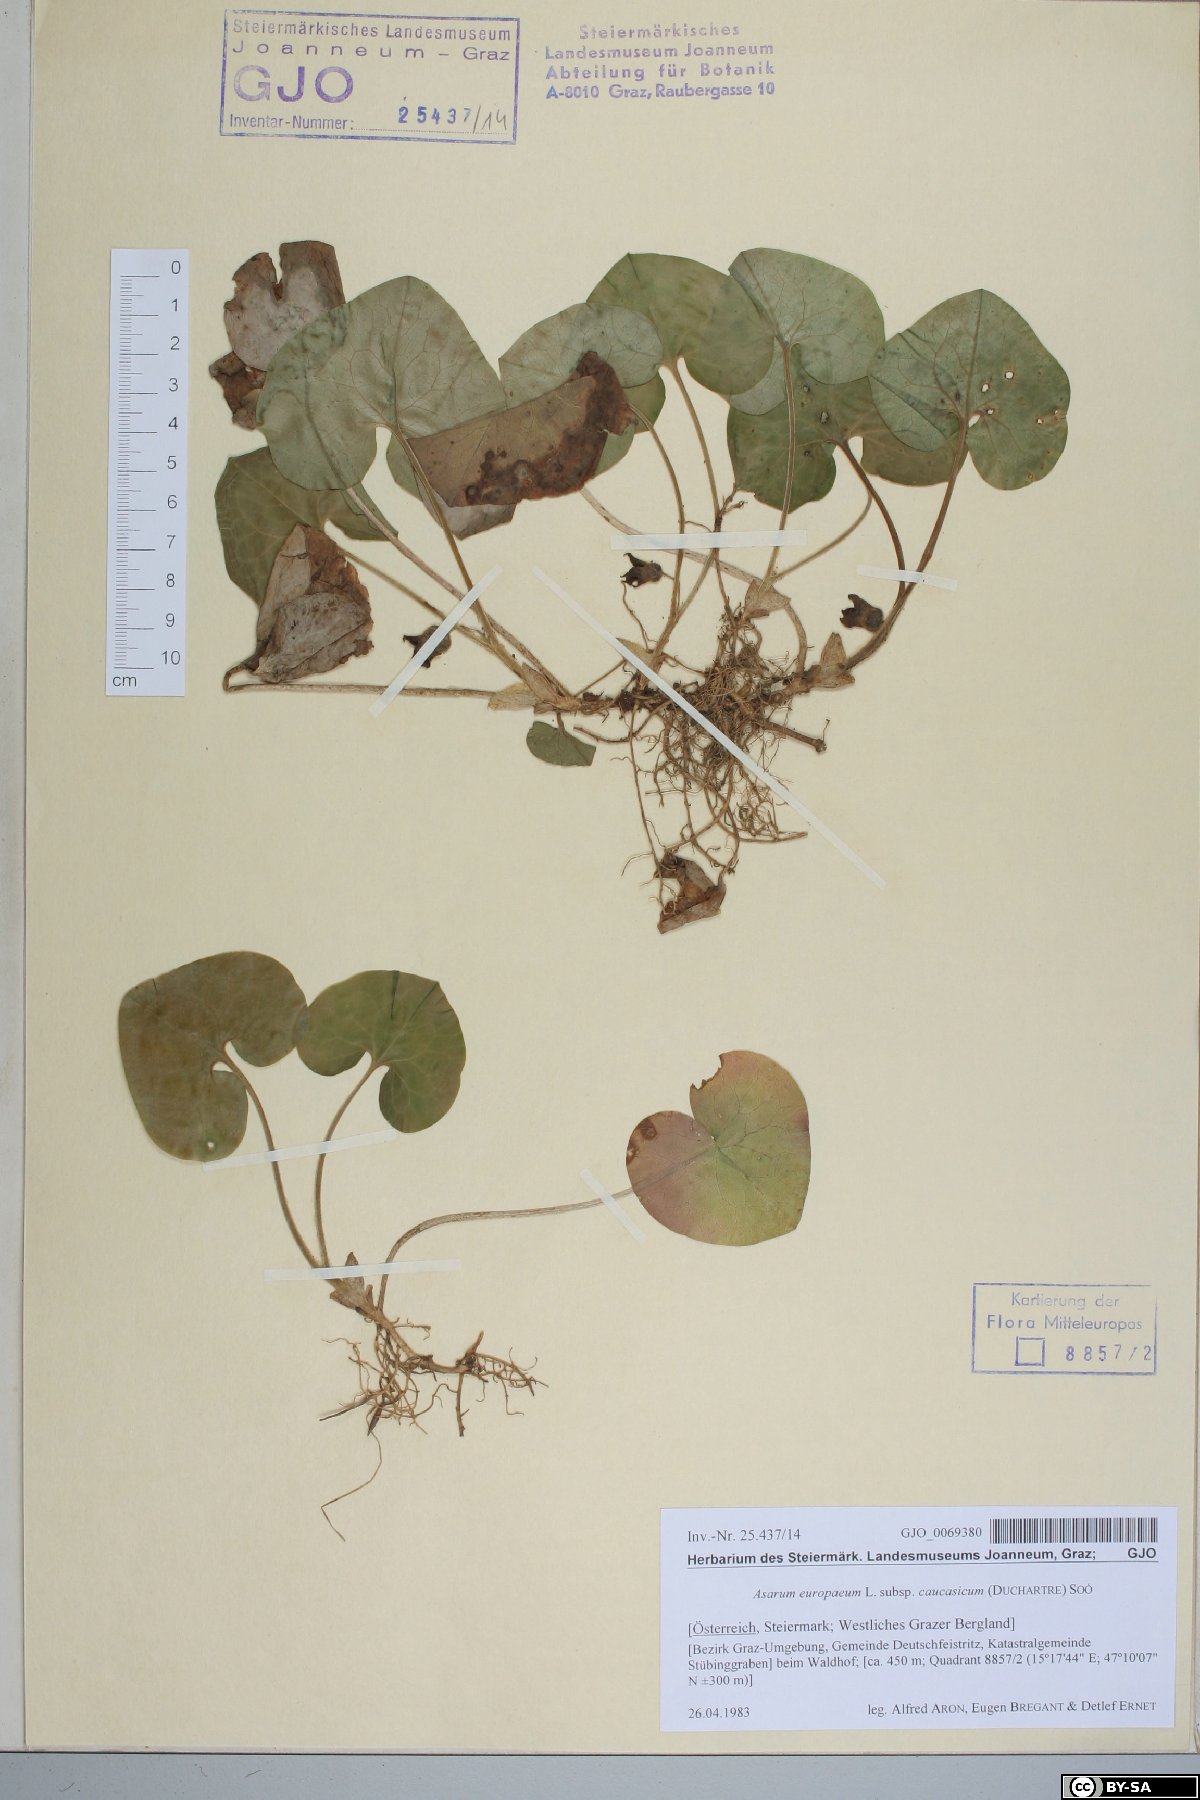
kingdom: Plantae
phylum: Tracheophyta
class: Magnoliopsida
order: Piperales
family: Aristolochiaceae
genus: Asarum
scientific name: Asarum europaeum
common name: Asarabacca
